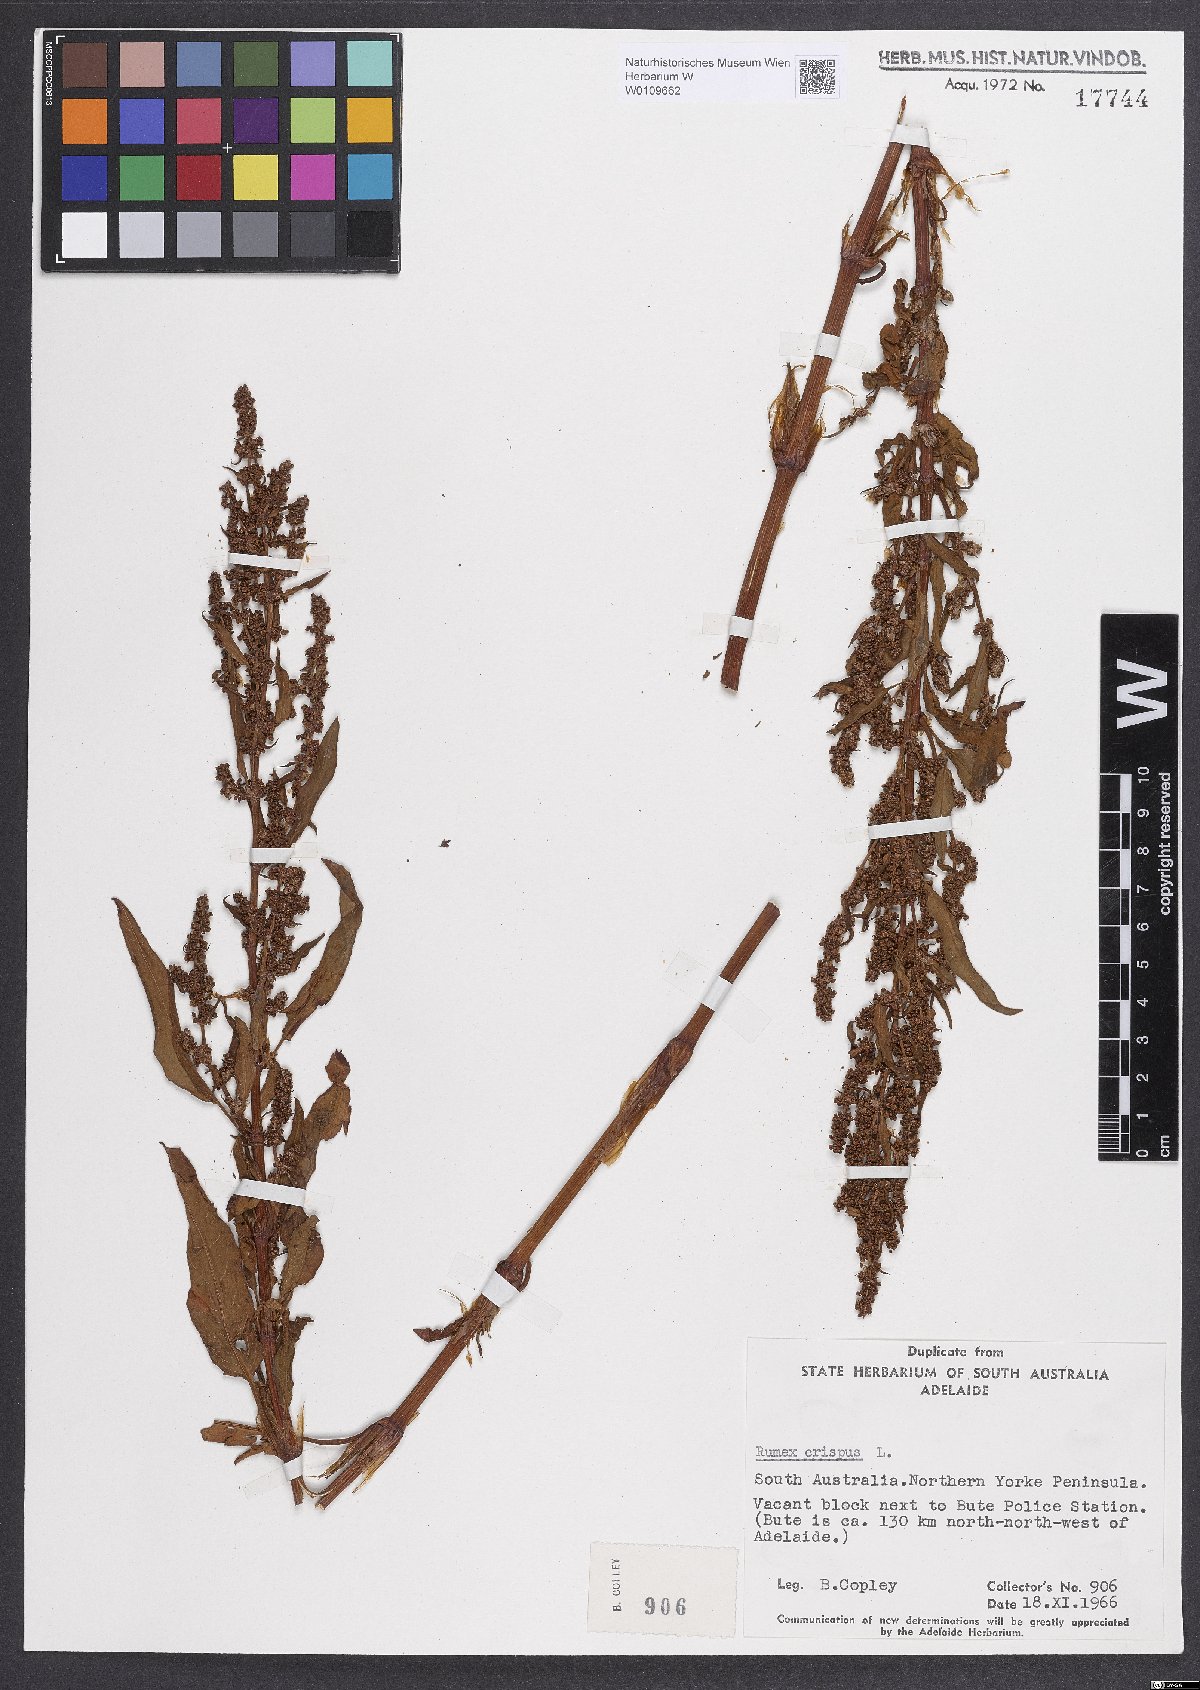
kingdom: Plantae
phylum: Tracheophyta
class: Magnoliopsida
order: Caryophyllales
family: Polygonaceae
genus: Rumex
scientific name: Rumex crispus
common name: Curled dock
